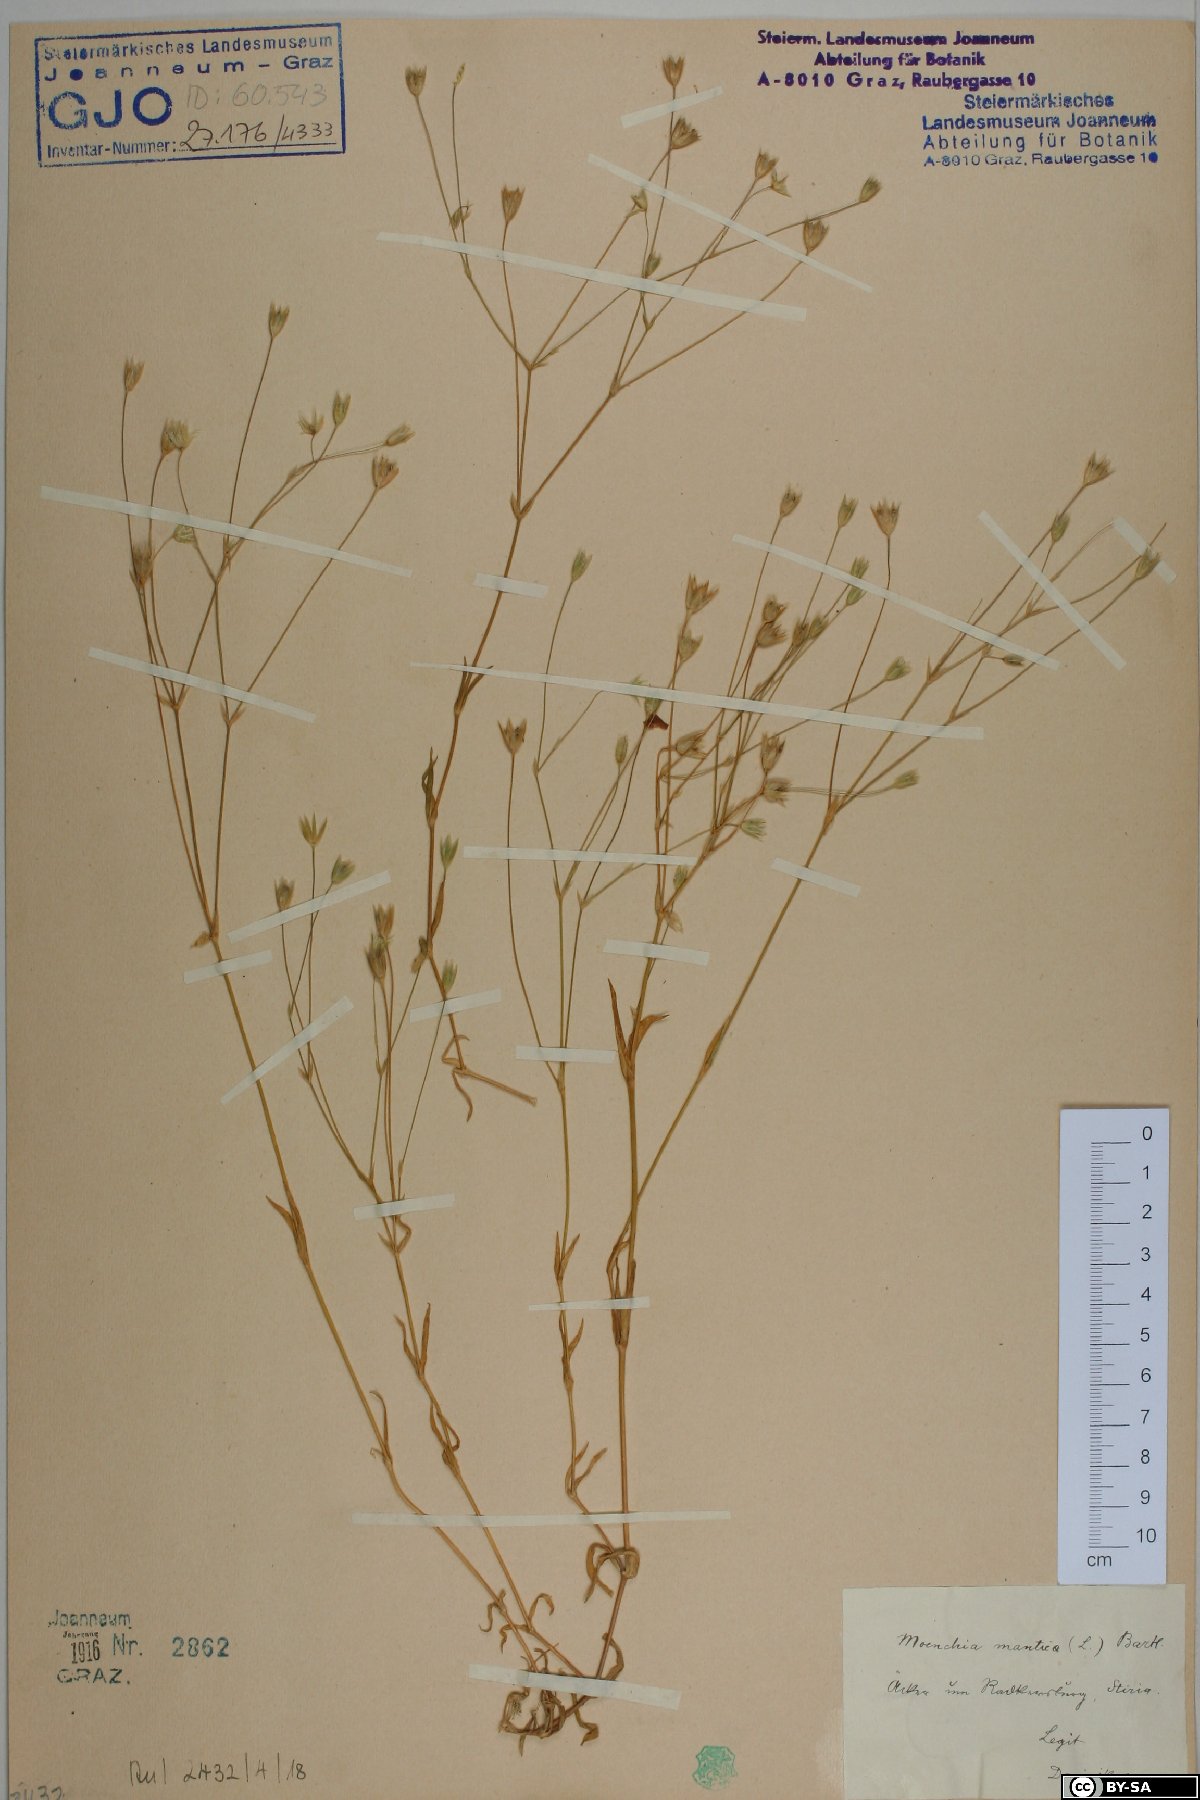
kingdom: Plantae
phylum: Tracheophyta
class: Magnoliopsida
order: Caryophyllales
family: Caryophyllaceae
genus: Moenchia
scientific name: Moenchia mantica
